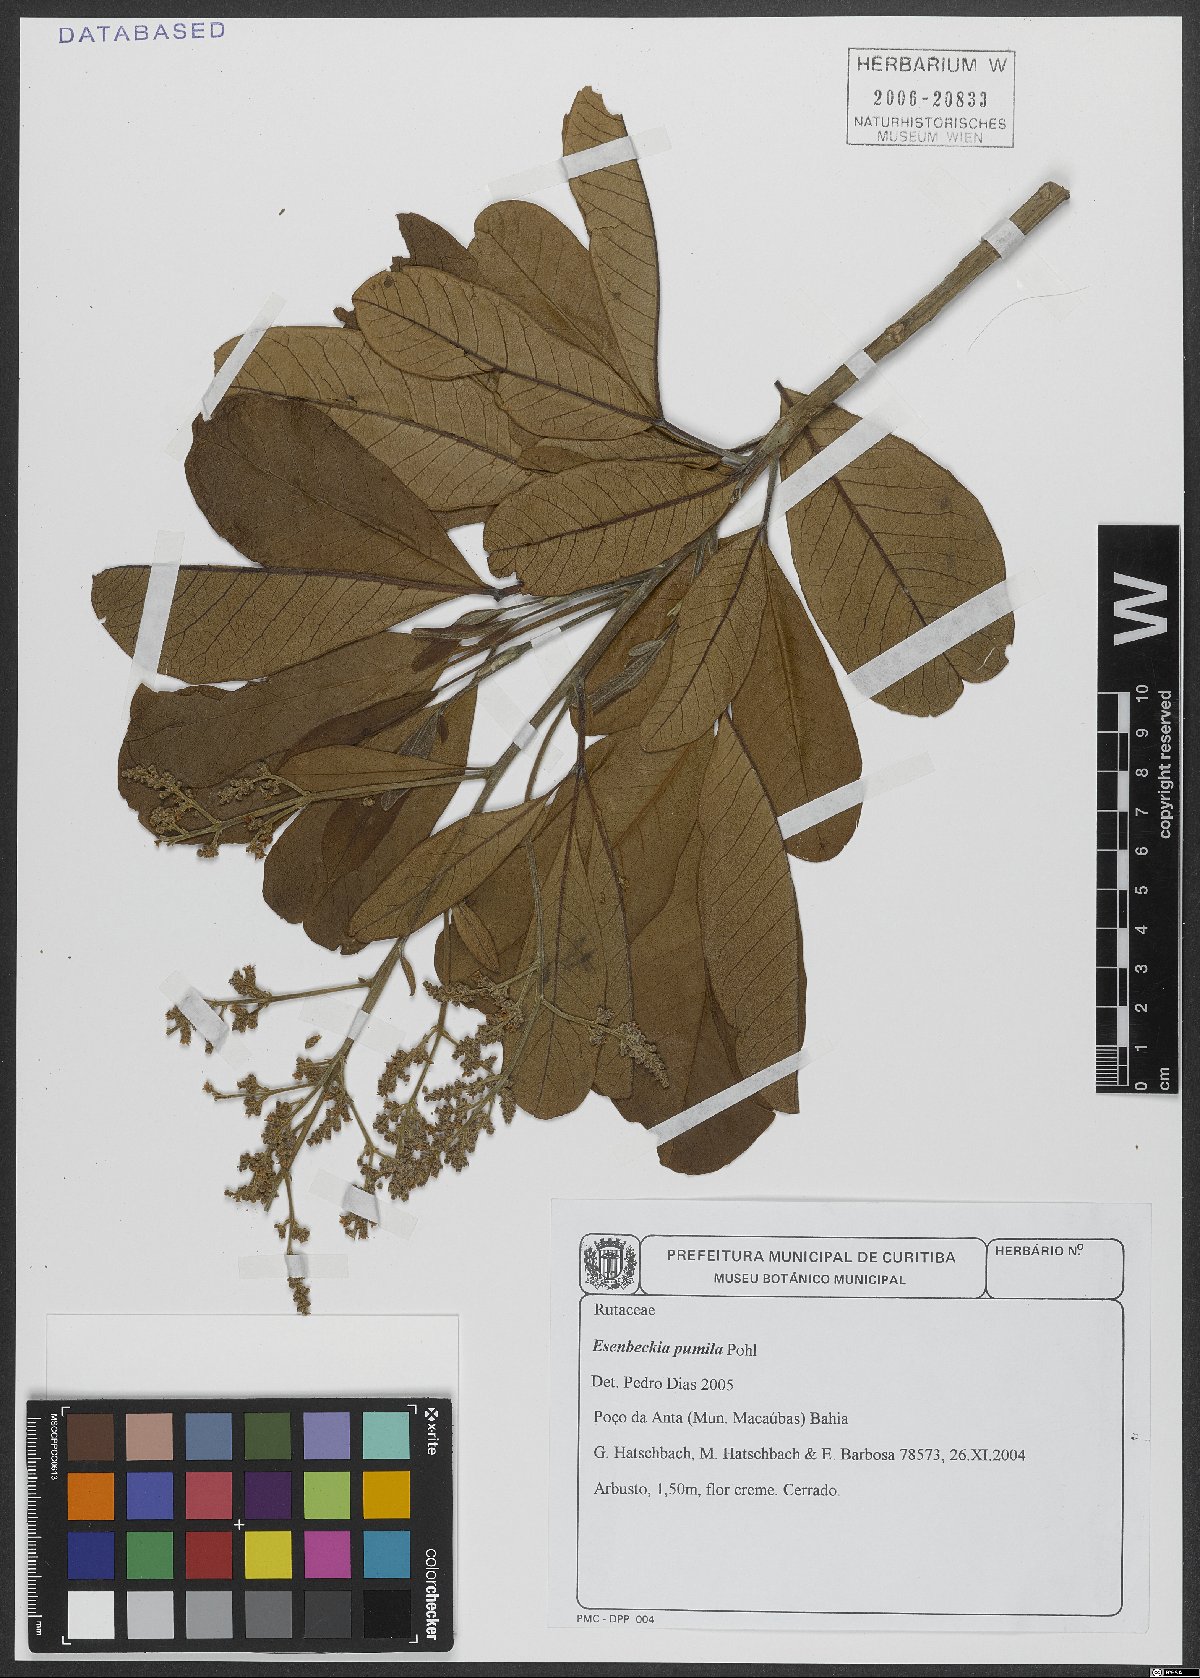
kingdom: Plantae
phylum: Tracheophyta
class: Magnoliopsida
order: Sapindales
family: Rutaceae
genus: Esenbeckia
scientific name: Esenbeckia pumila
